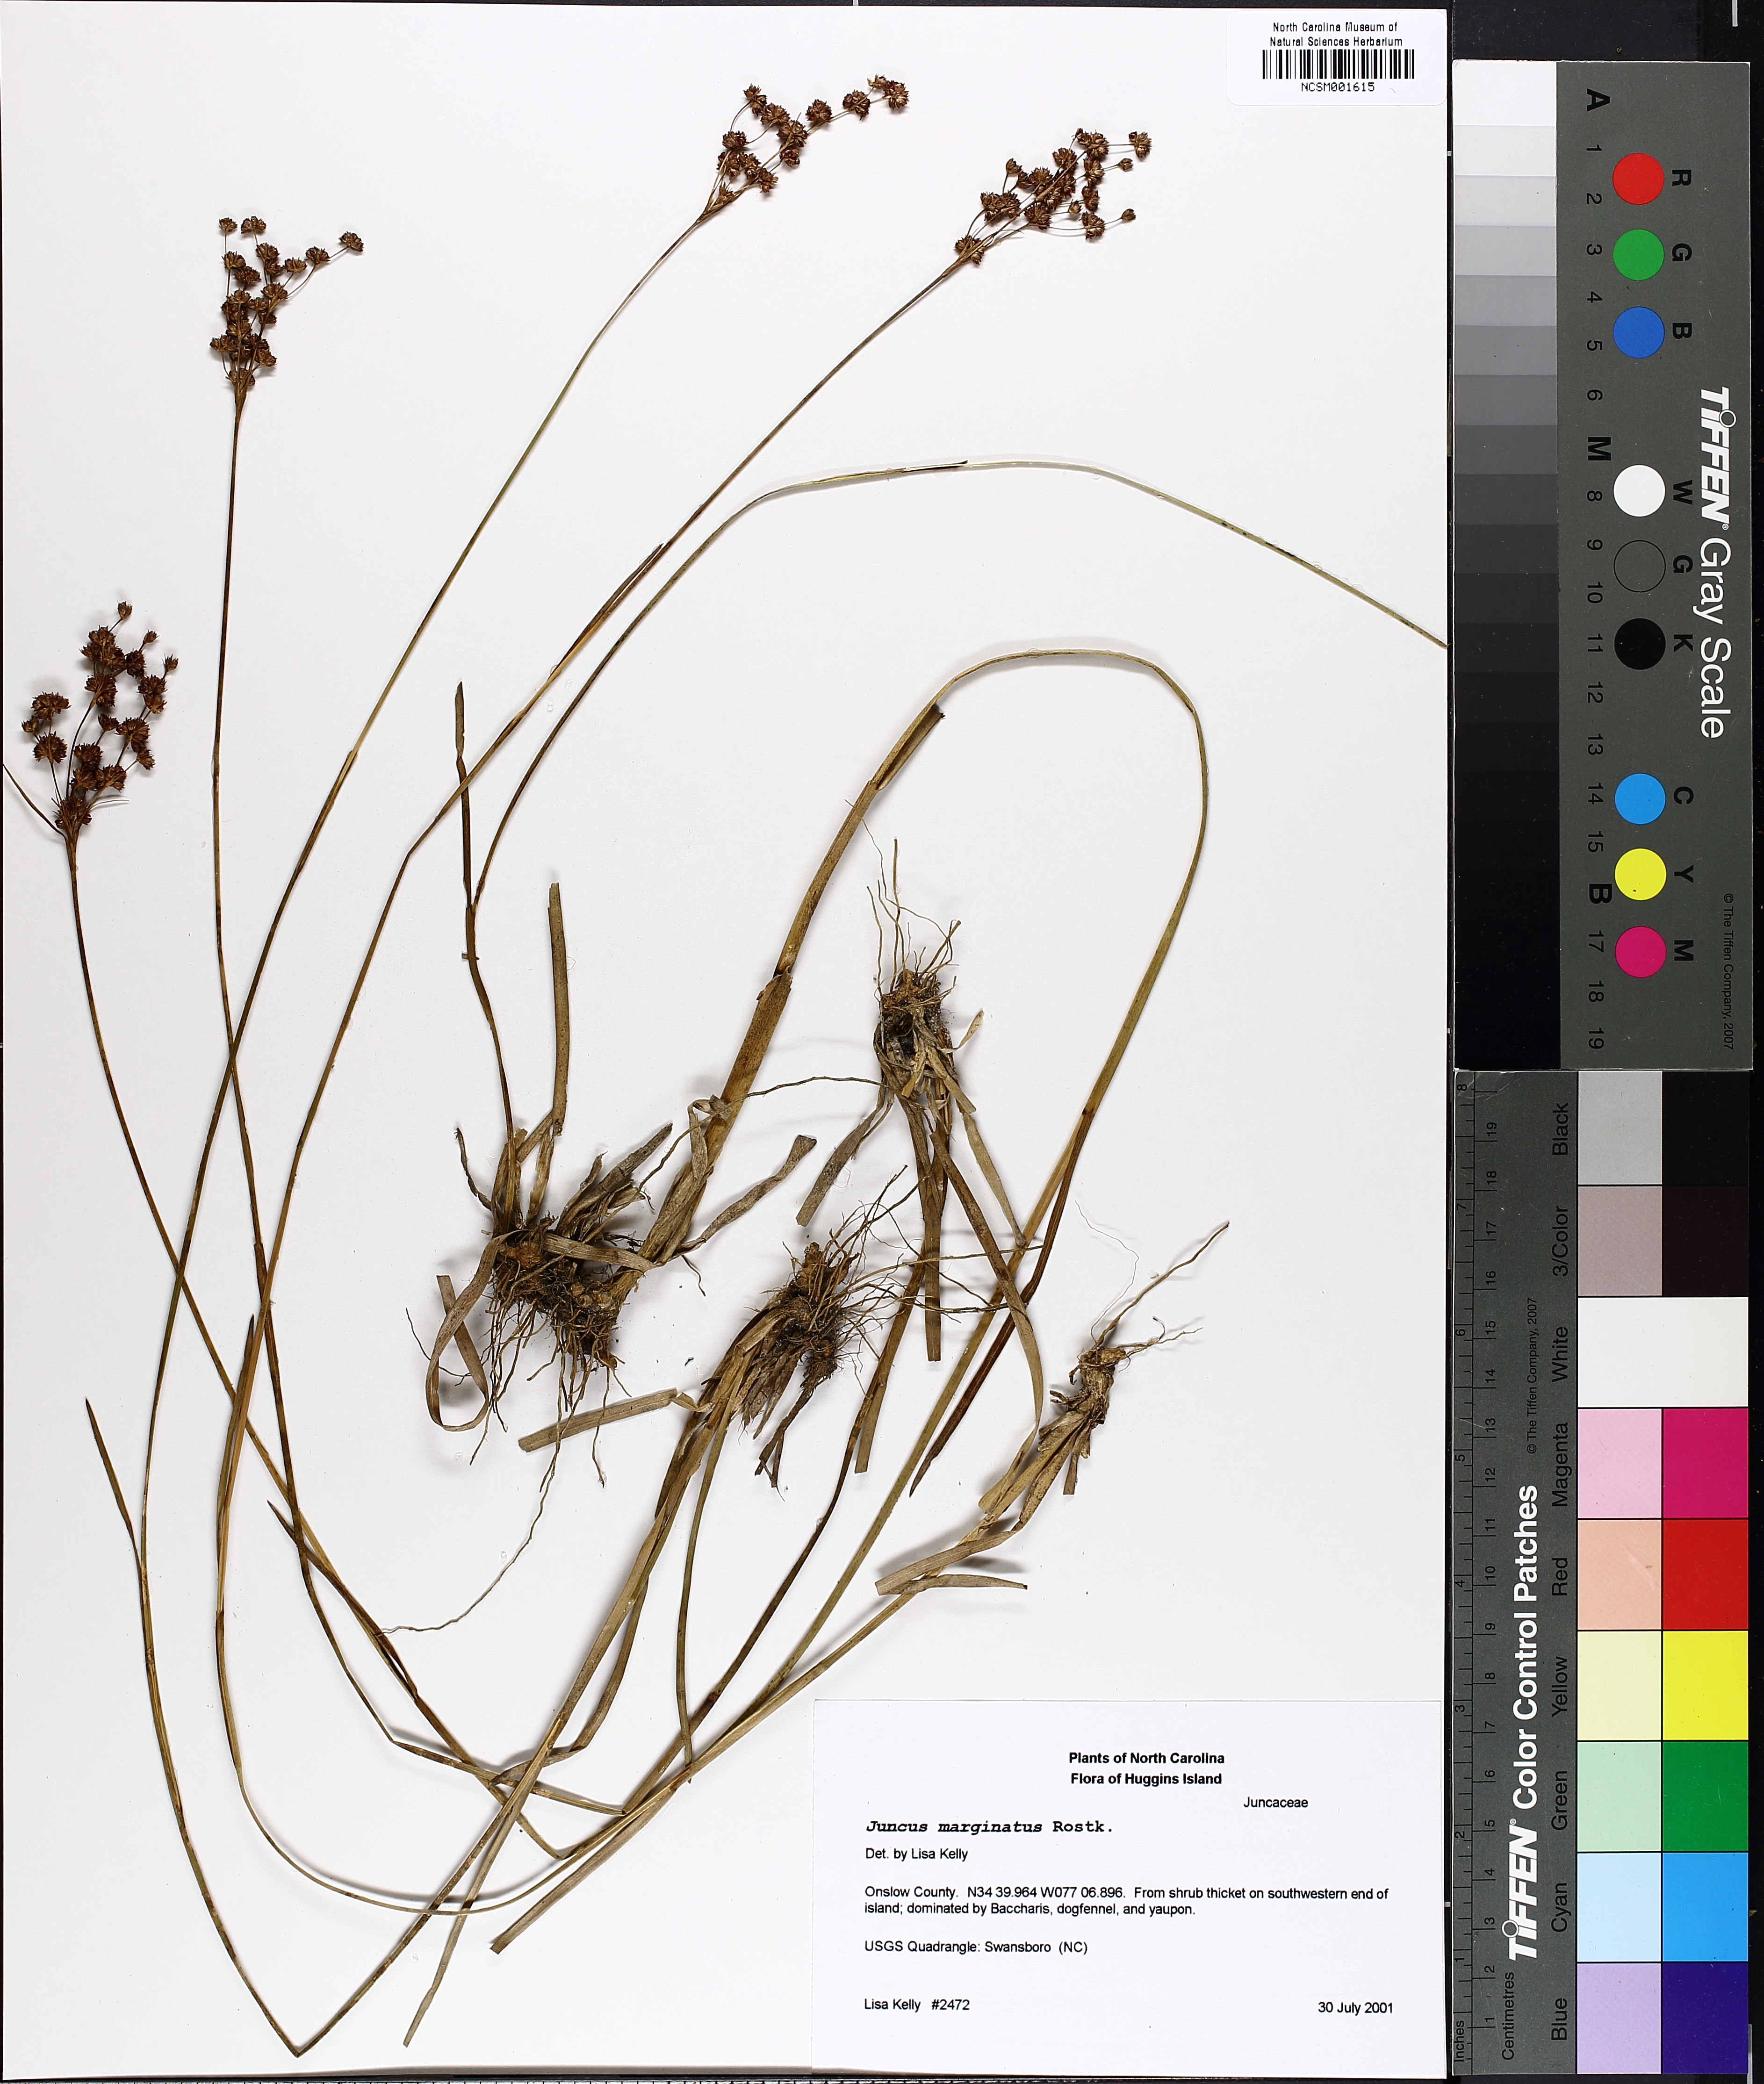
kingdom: Plantae
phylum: Tracheophyta
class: Liliopsida
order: Poales
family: Juncaceae
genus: Juncus
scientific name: Juncus marginatus
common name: Grass-leaf rush
